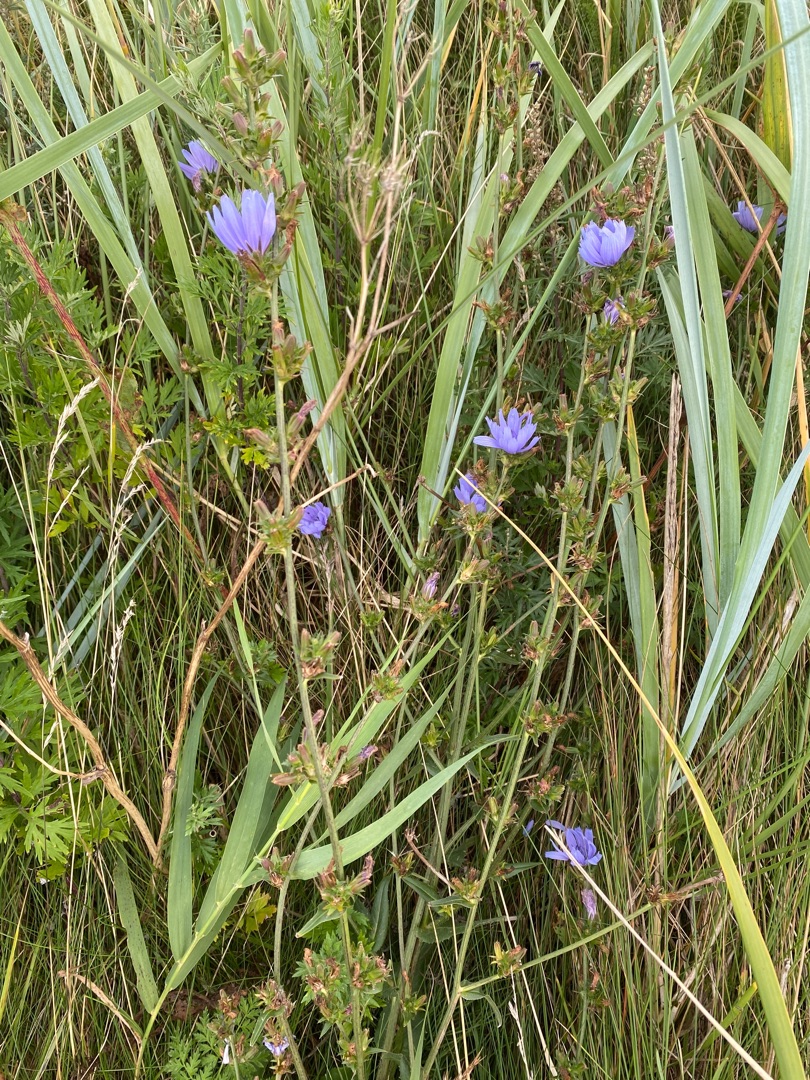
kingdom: Plantae
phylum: Tracheophyta
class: Magnoliopsida
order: Asterales
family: Asteraceae
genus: Cichorium
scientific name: Cichorium intybus
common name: Cikorie
